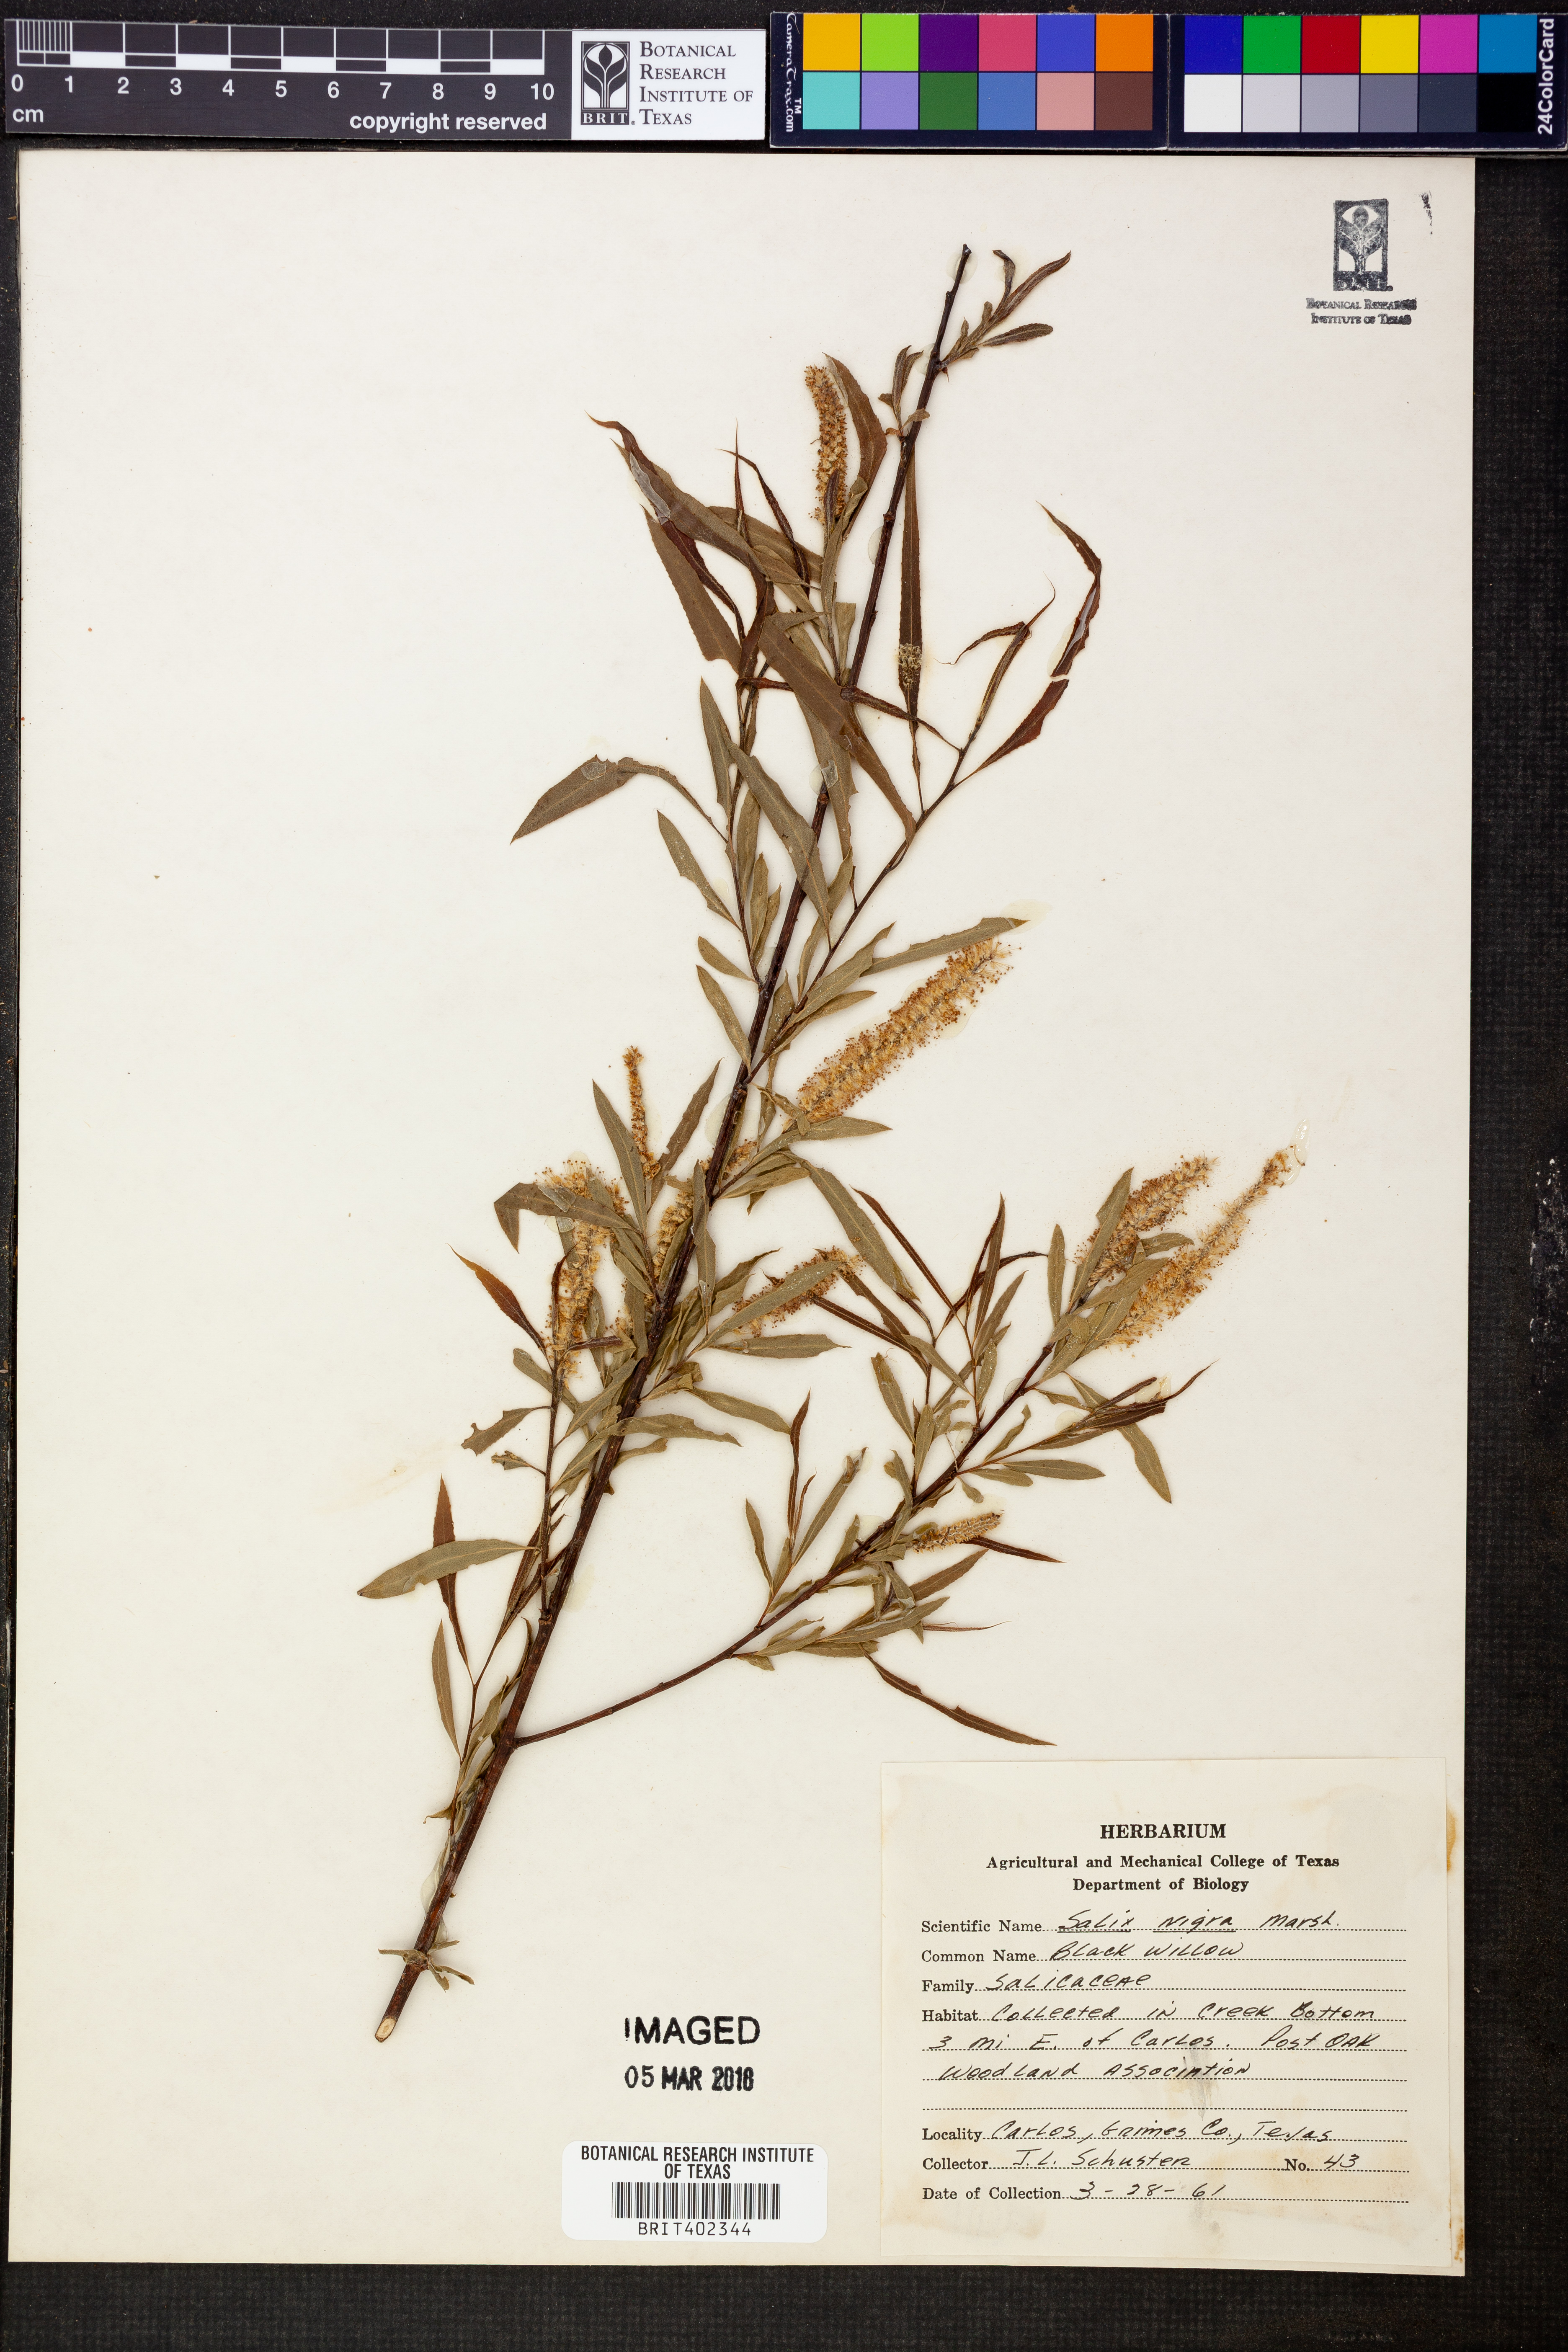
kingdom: Plantae
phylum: Tracheophyta
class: Magnoliopsida
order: Malpighiales
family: Salicaceae
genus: Salix
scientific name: Salix nigra
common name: Black willow
